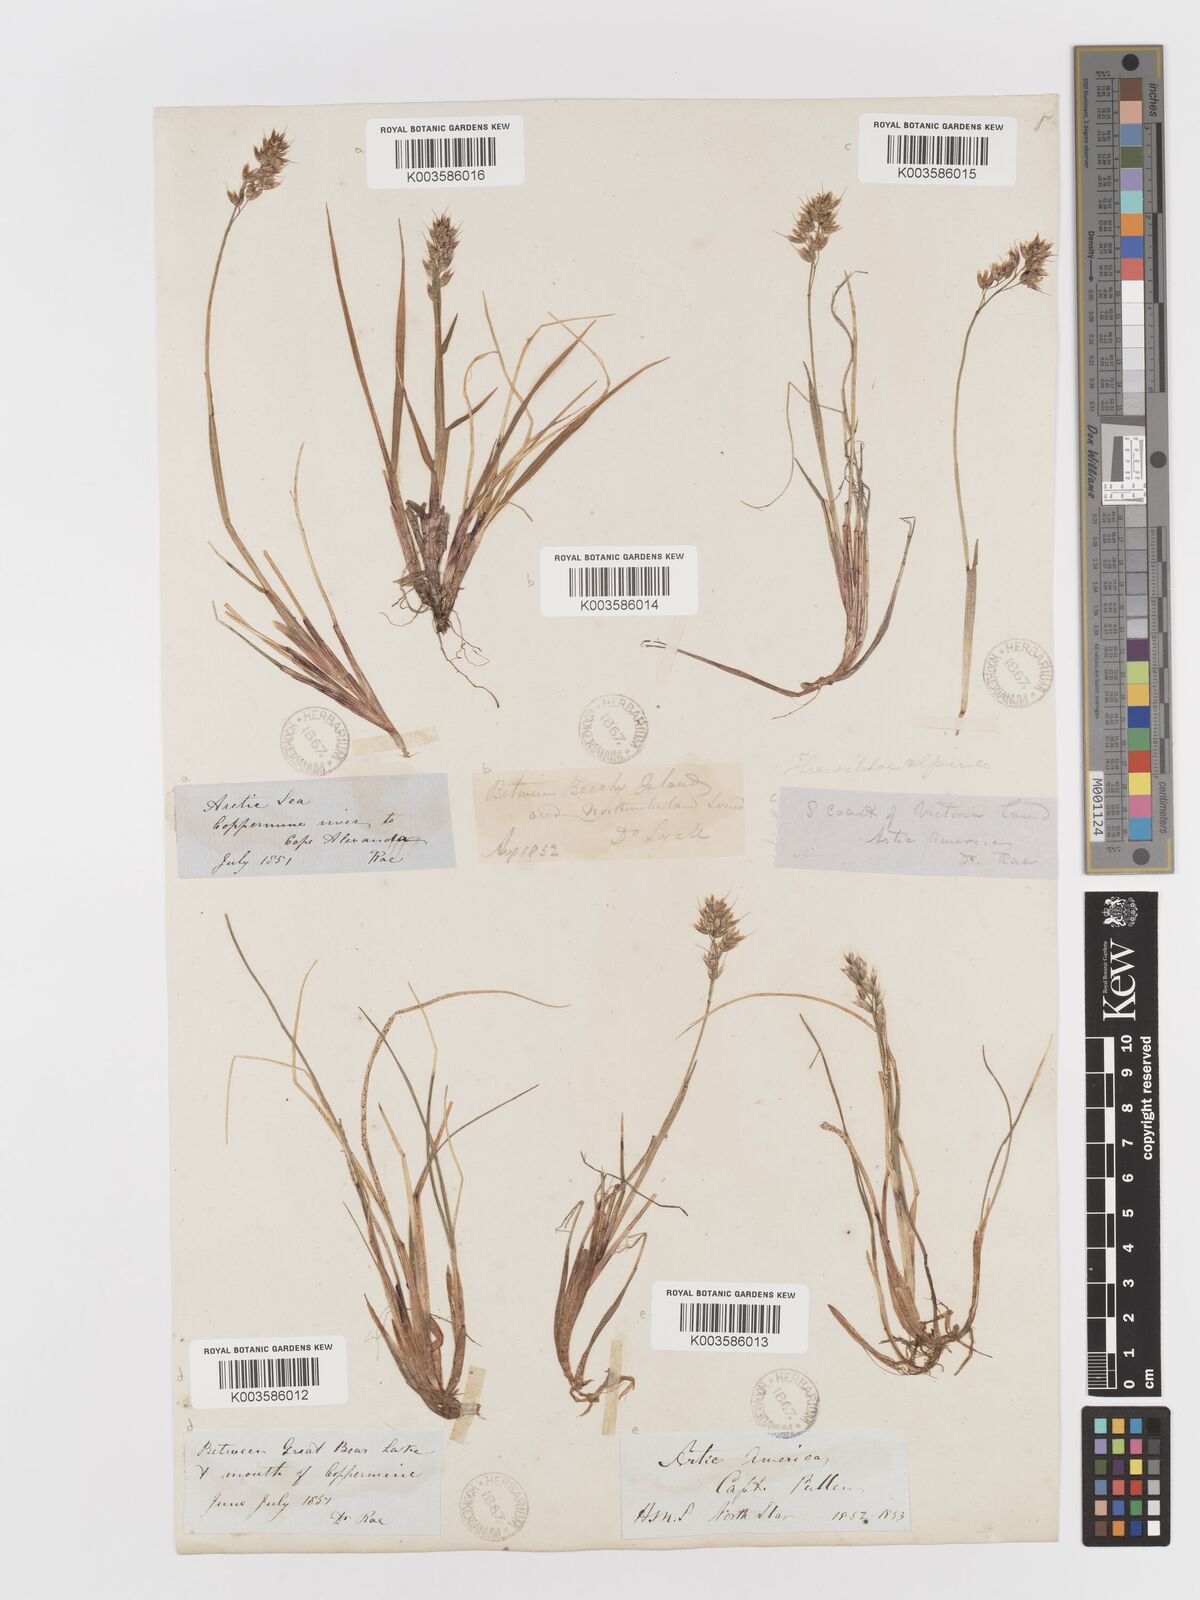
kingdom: Plantae
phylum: Tracheophyta
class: Liliopsida
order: Poales
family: Poaceae
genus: Anthoxanthum
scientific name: Anthoxanthum monticola
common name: Alpine sweetgrass
